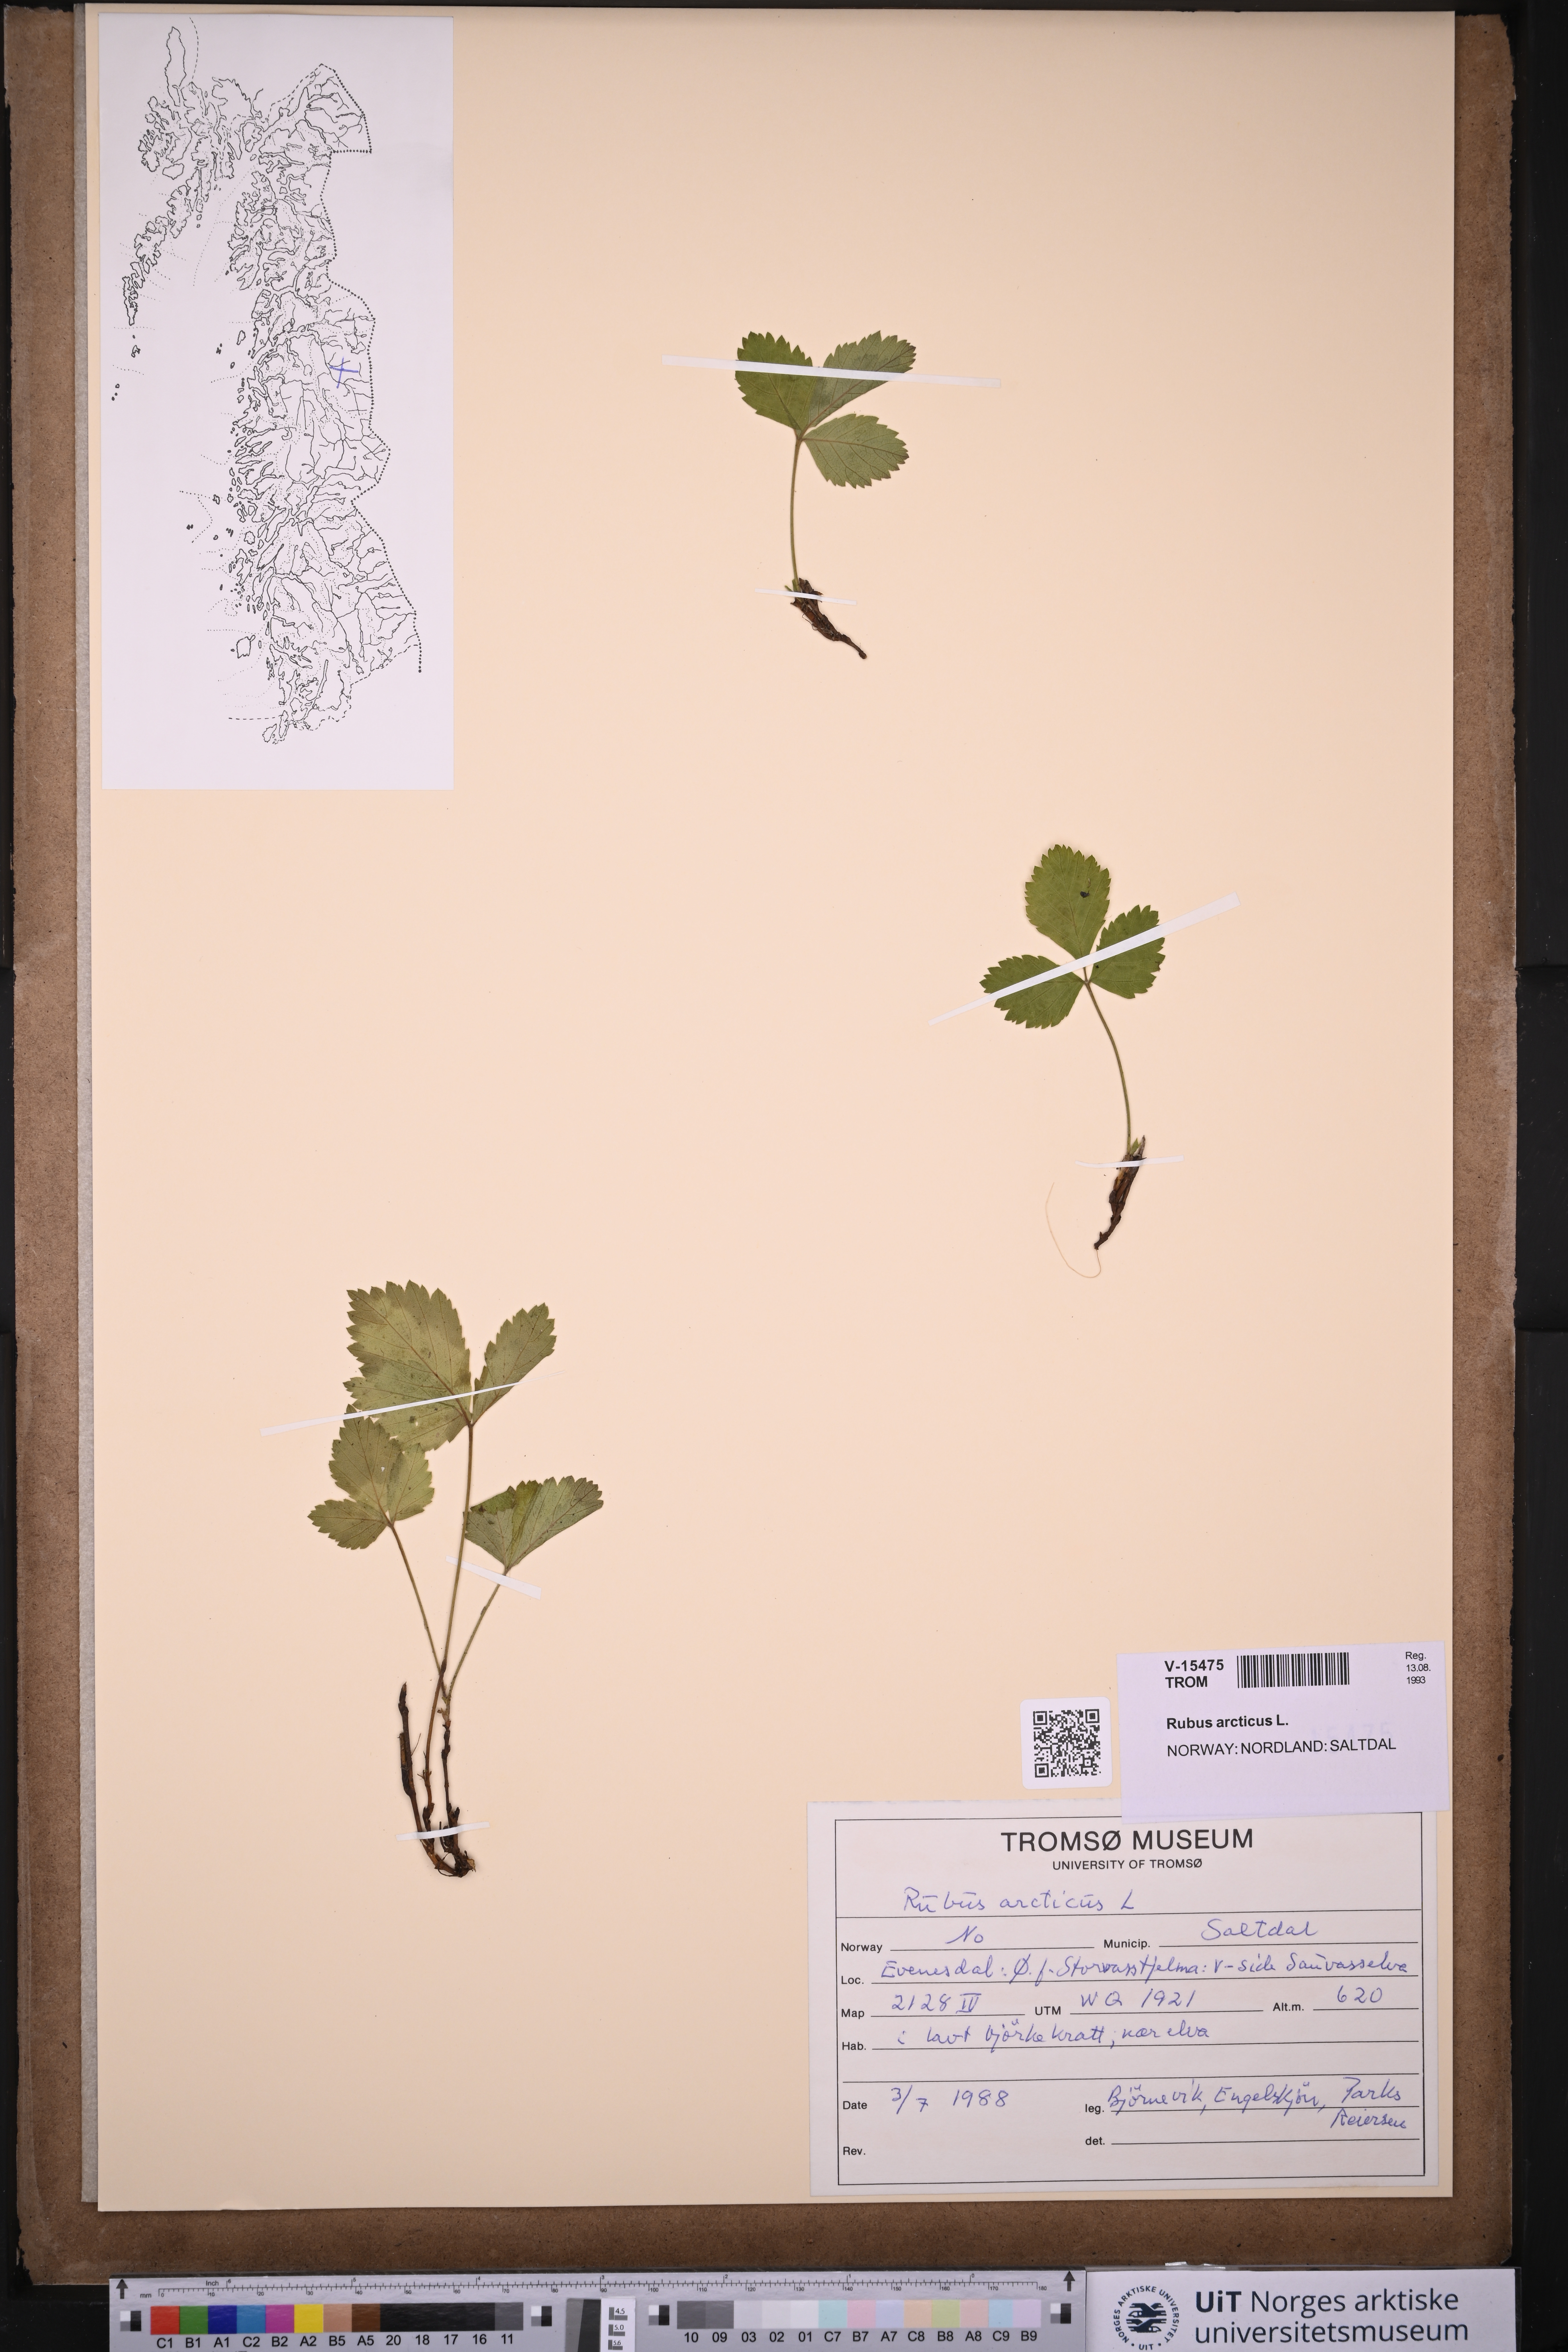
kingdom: Plantae
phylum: Tracheophyta
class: Magnoliopsida
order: Rosales
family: Rosaceae
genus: Rubus
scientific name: Rubus arcticus
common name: Arctic bramble
